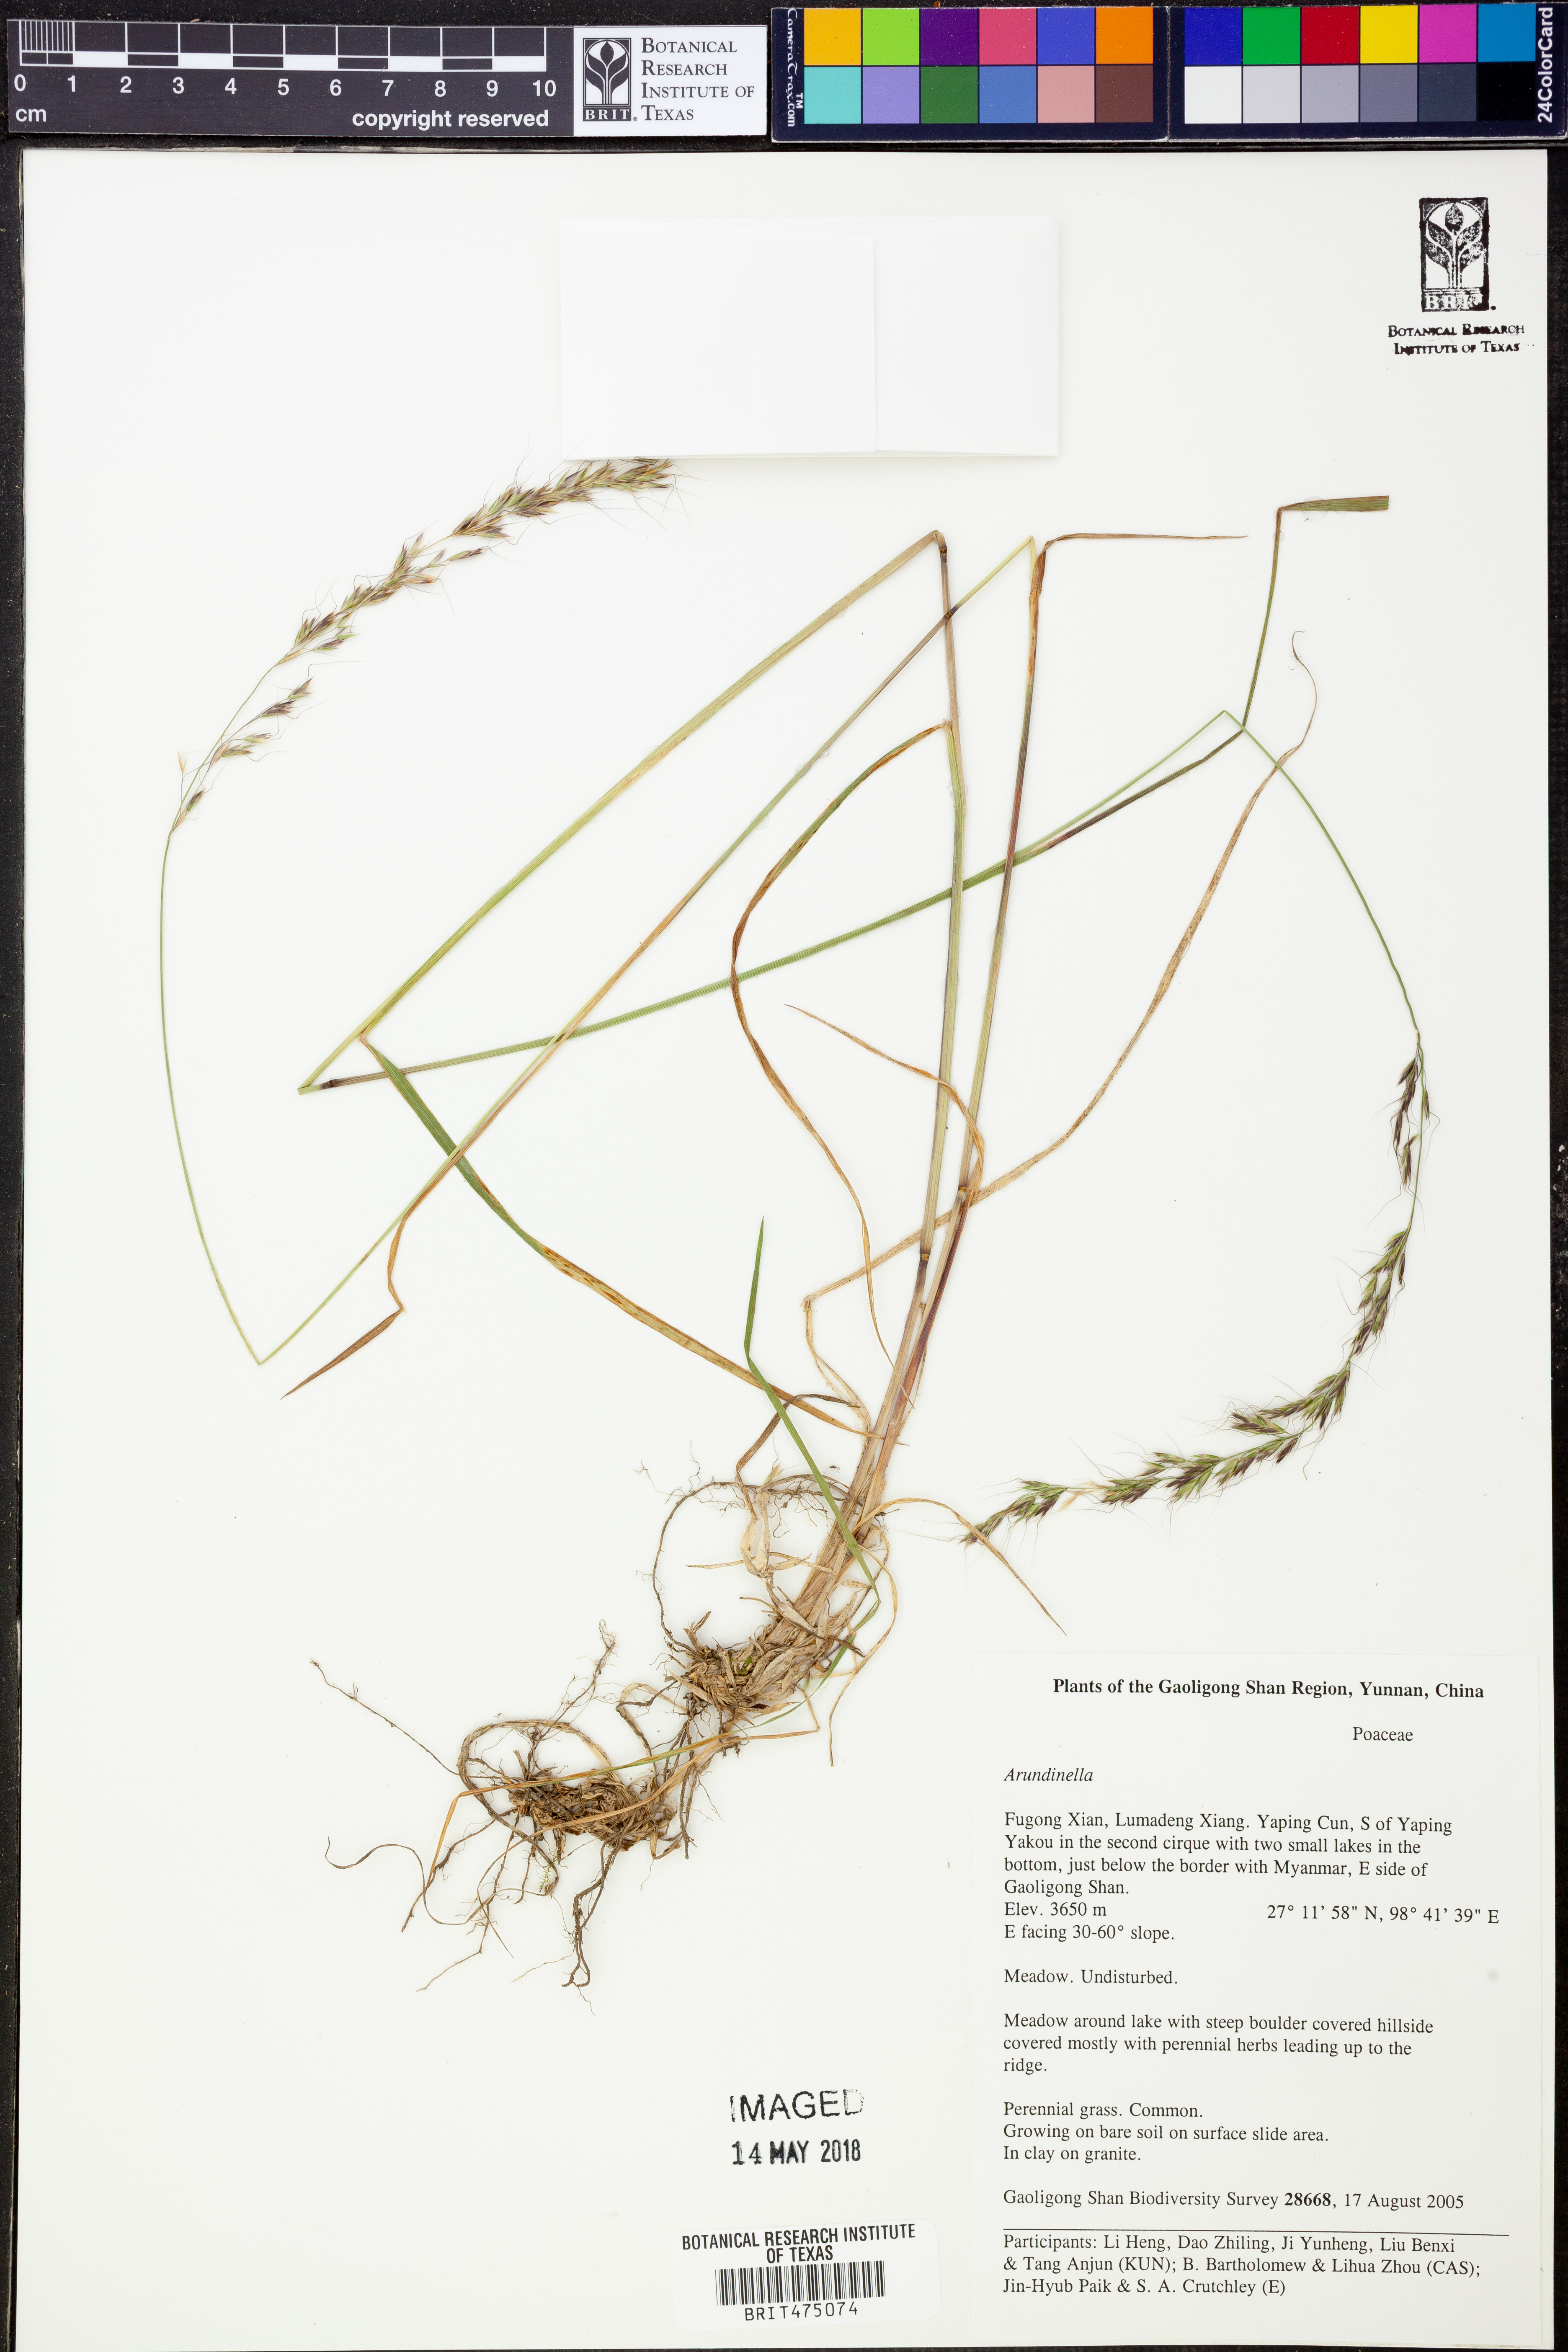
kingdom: Plantae
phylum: Tracheophyta
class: Liliopsida
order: Poales
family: Poaceae
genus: Arundinella
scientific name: Arundinella
